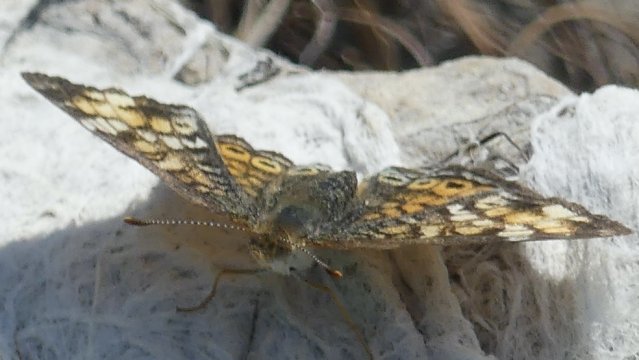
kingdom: Animalia
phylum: Arthropoda
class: Insecta
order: Lepidoptera
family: Nymphalidae
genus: Phyciodes
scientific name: Phyciodes
